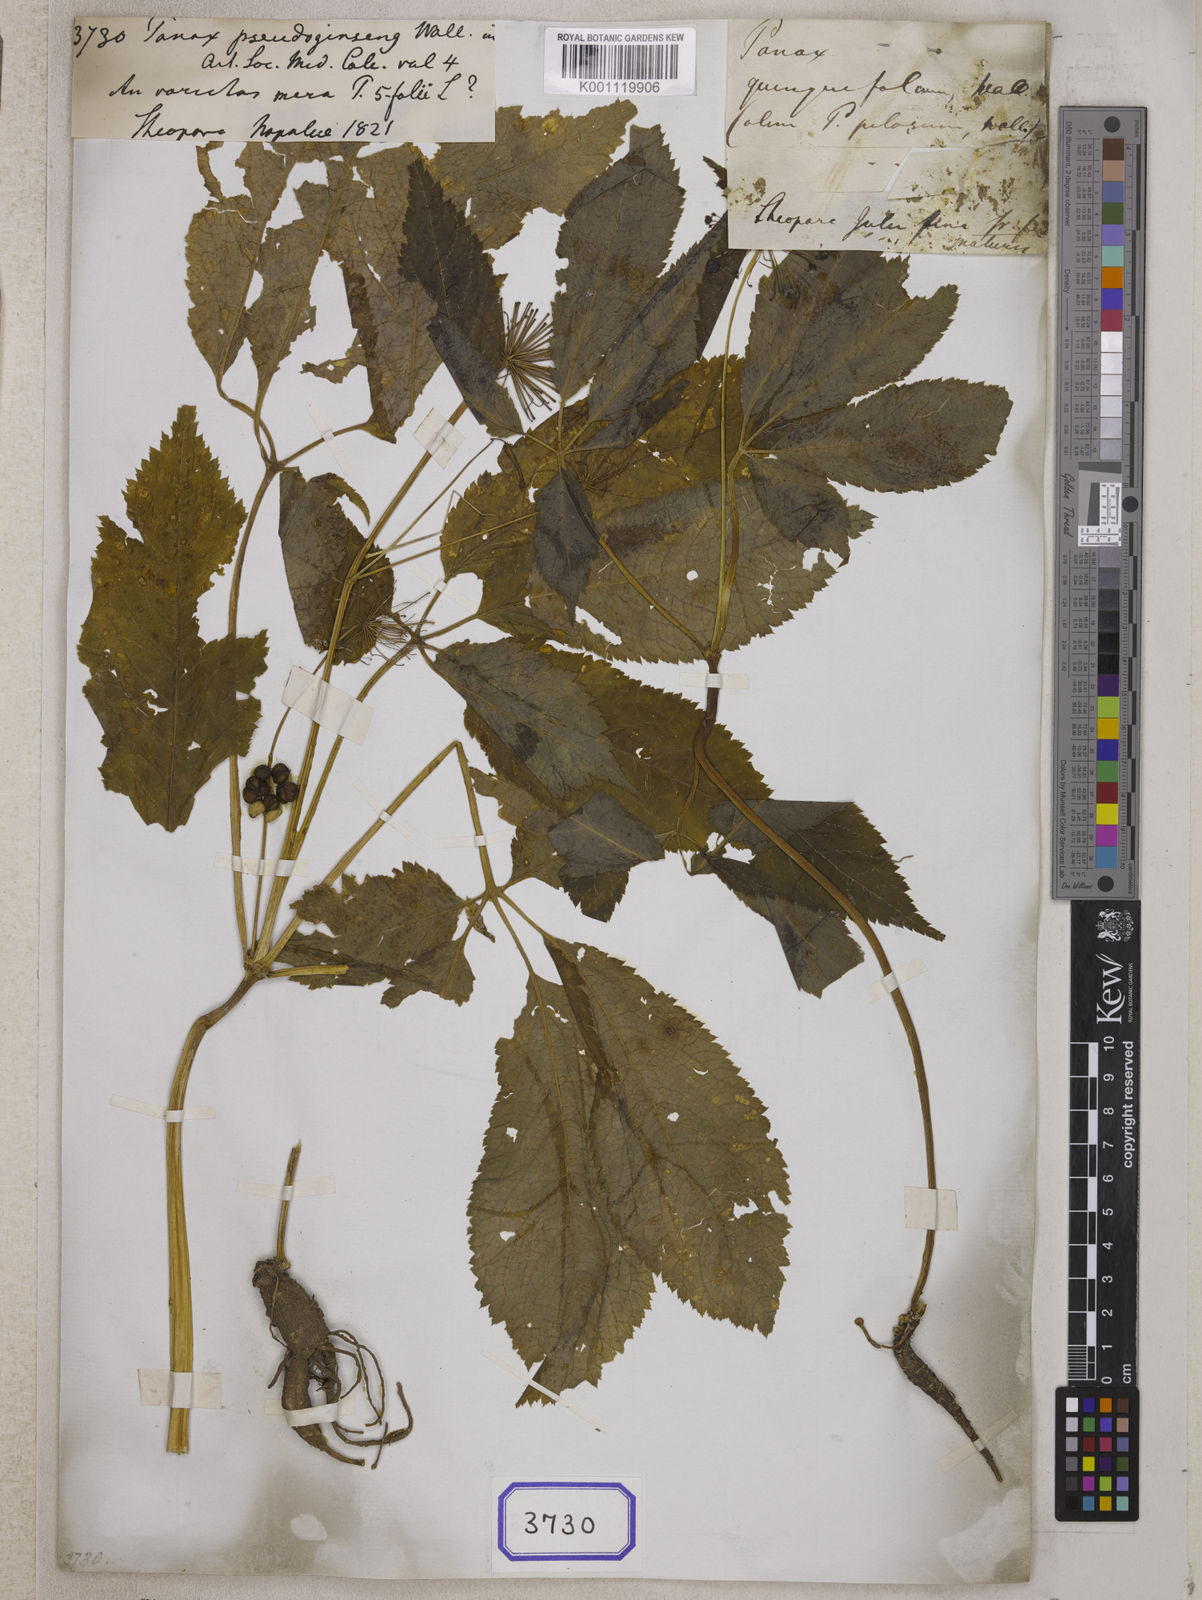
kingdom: Plantae
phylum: Tracheophyta
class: Magnoliopsida
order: Apiales
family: Araliaceae
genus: Panax
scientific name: Panax pseudoginseng
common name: Pseudoginseng
